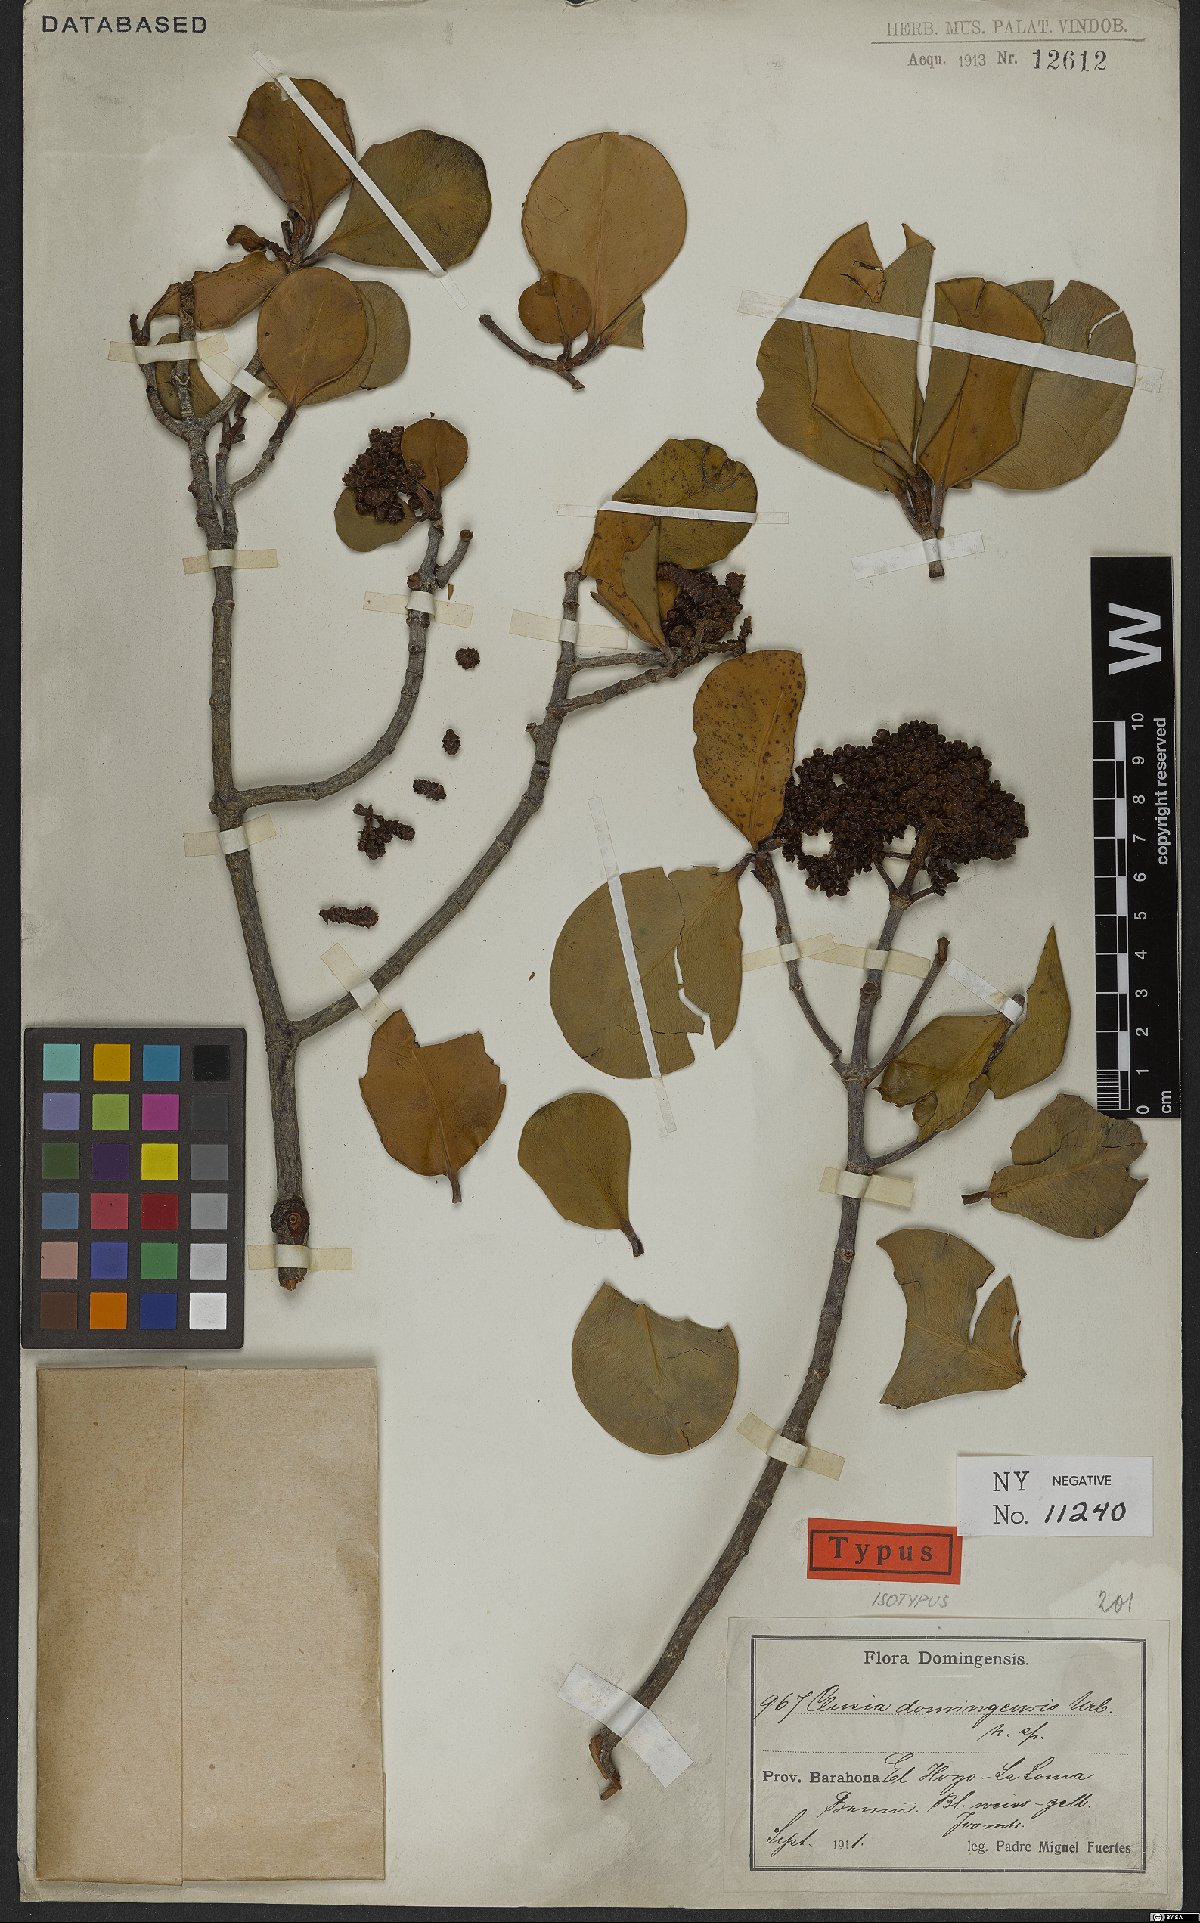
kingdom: Plantae
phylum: Tracheophyta
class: Magnoliopsida
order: Malpighiales
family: Clusiaceae
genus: Clusia
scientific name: Clusia domingensis
